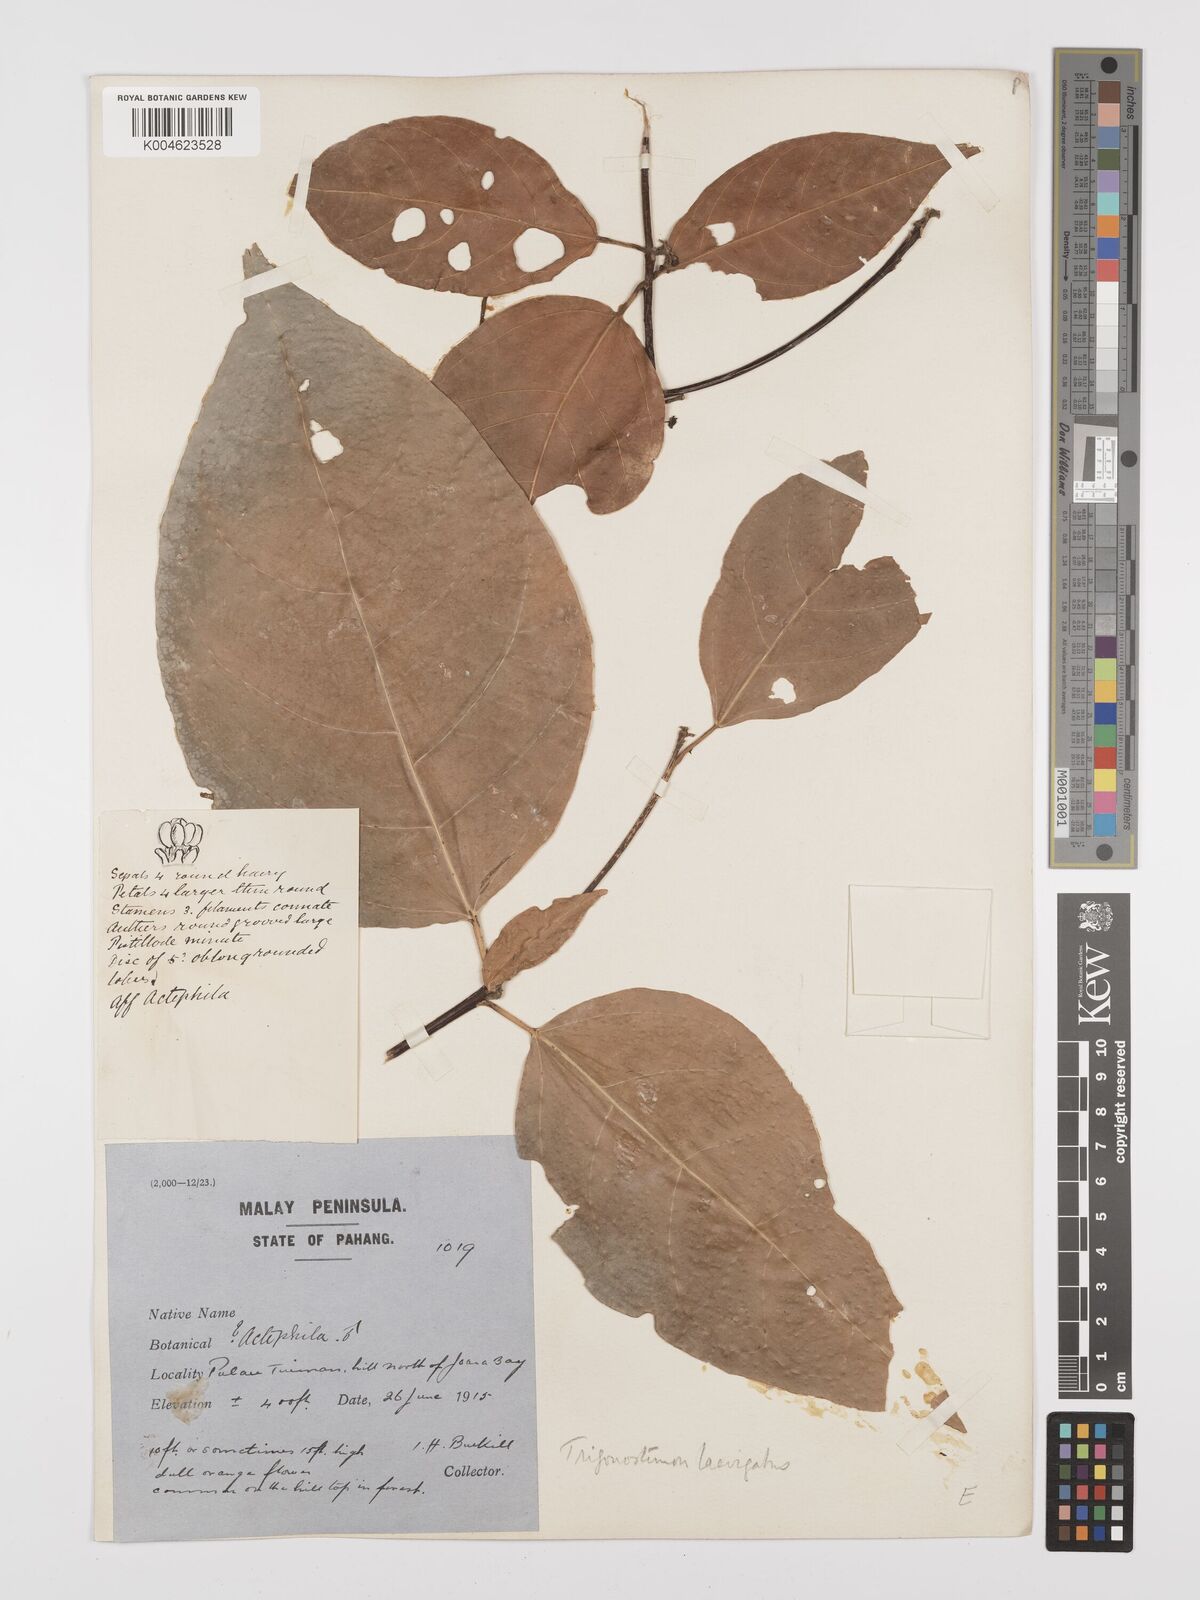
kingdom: Plantae
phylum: Tracheophyta
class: Magnoliopsida
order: Malpighiales
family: Euphorbiaceae
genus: Trigonostemon
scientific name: Trigonostemon laevigatus
